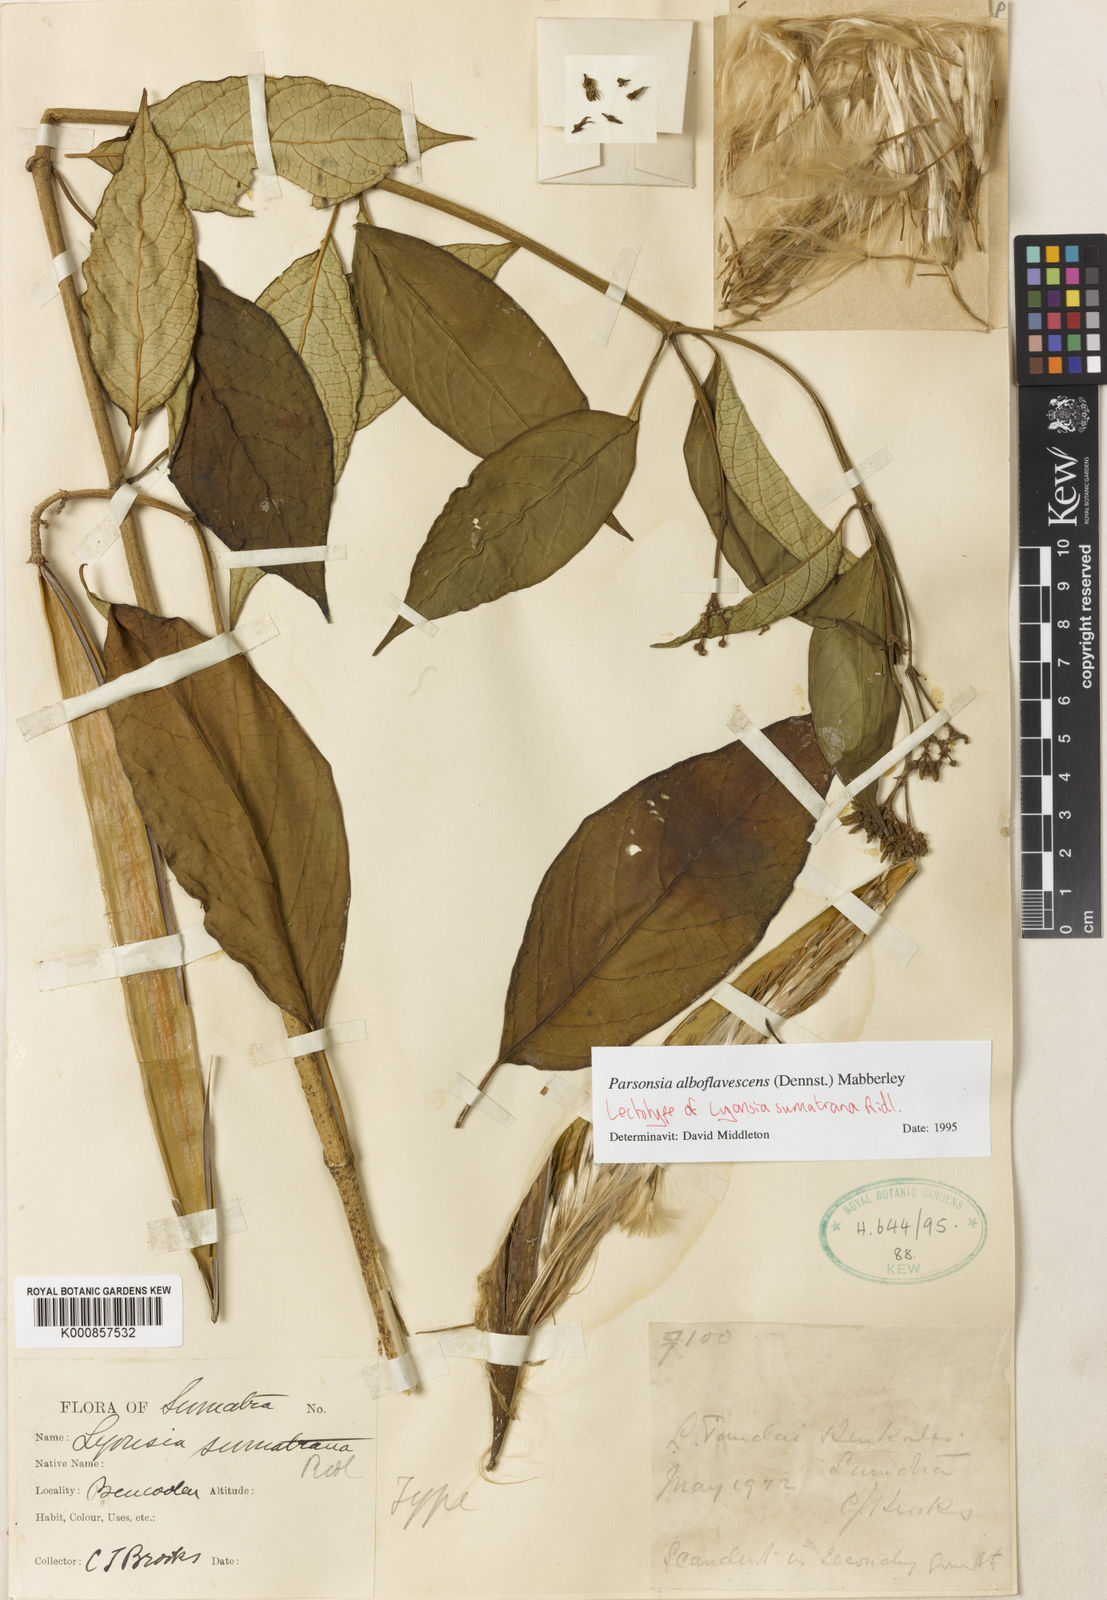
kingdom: Plantae
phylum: Tracheophyta
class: Magnoliopsida
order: Gentianales
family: Apocynaceae
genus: Parsonsia
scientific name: Parsonsia alboflavescens
